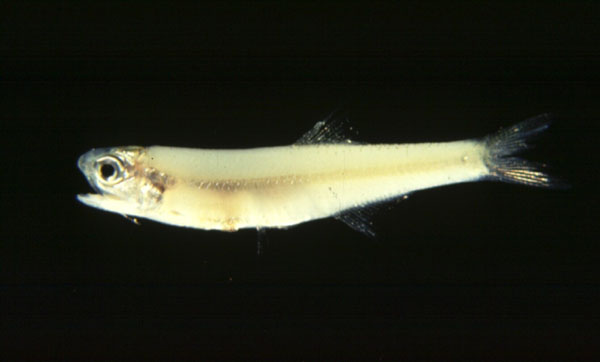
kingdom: Animalia
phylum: Chordata
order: Clupeiformes
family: Engraulidae
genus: Thryssa
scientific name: Thryssa vitrirostris
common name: Orangemouth anchovy
